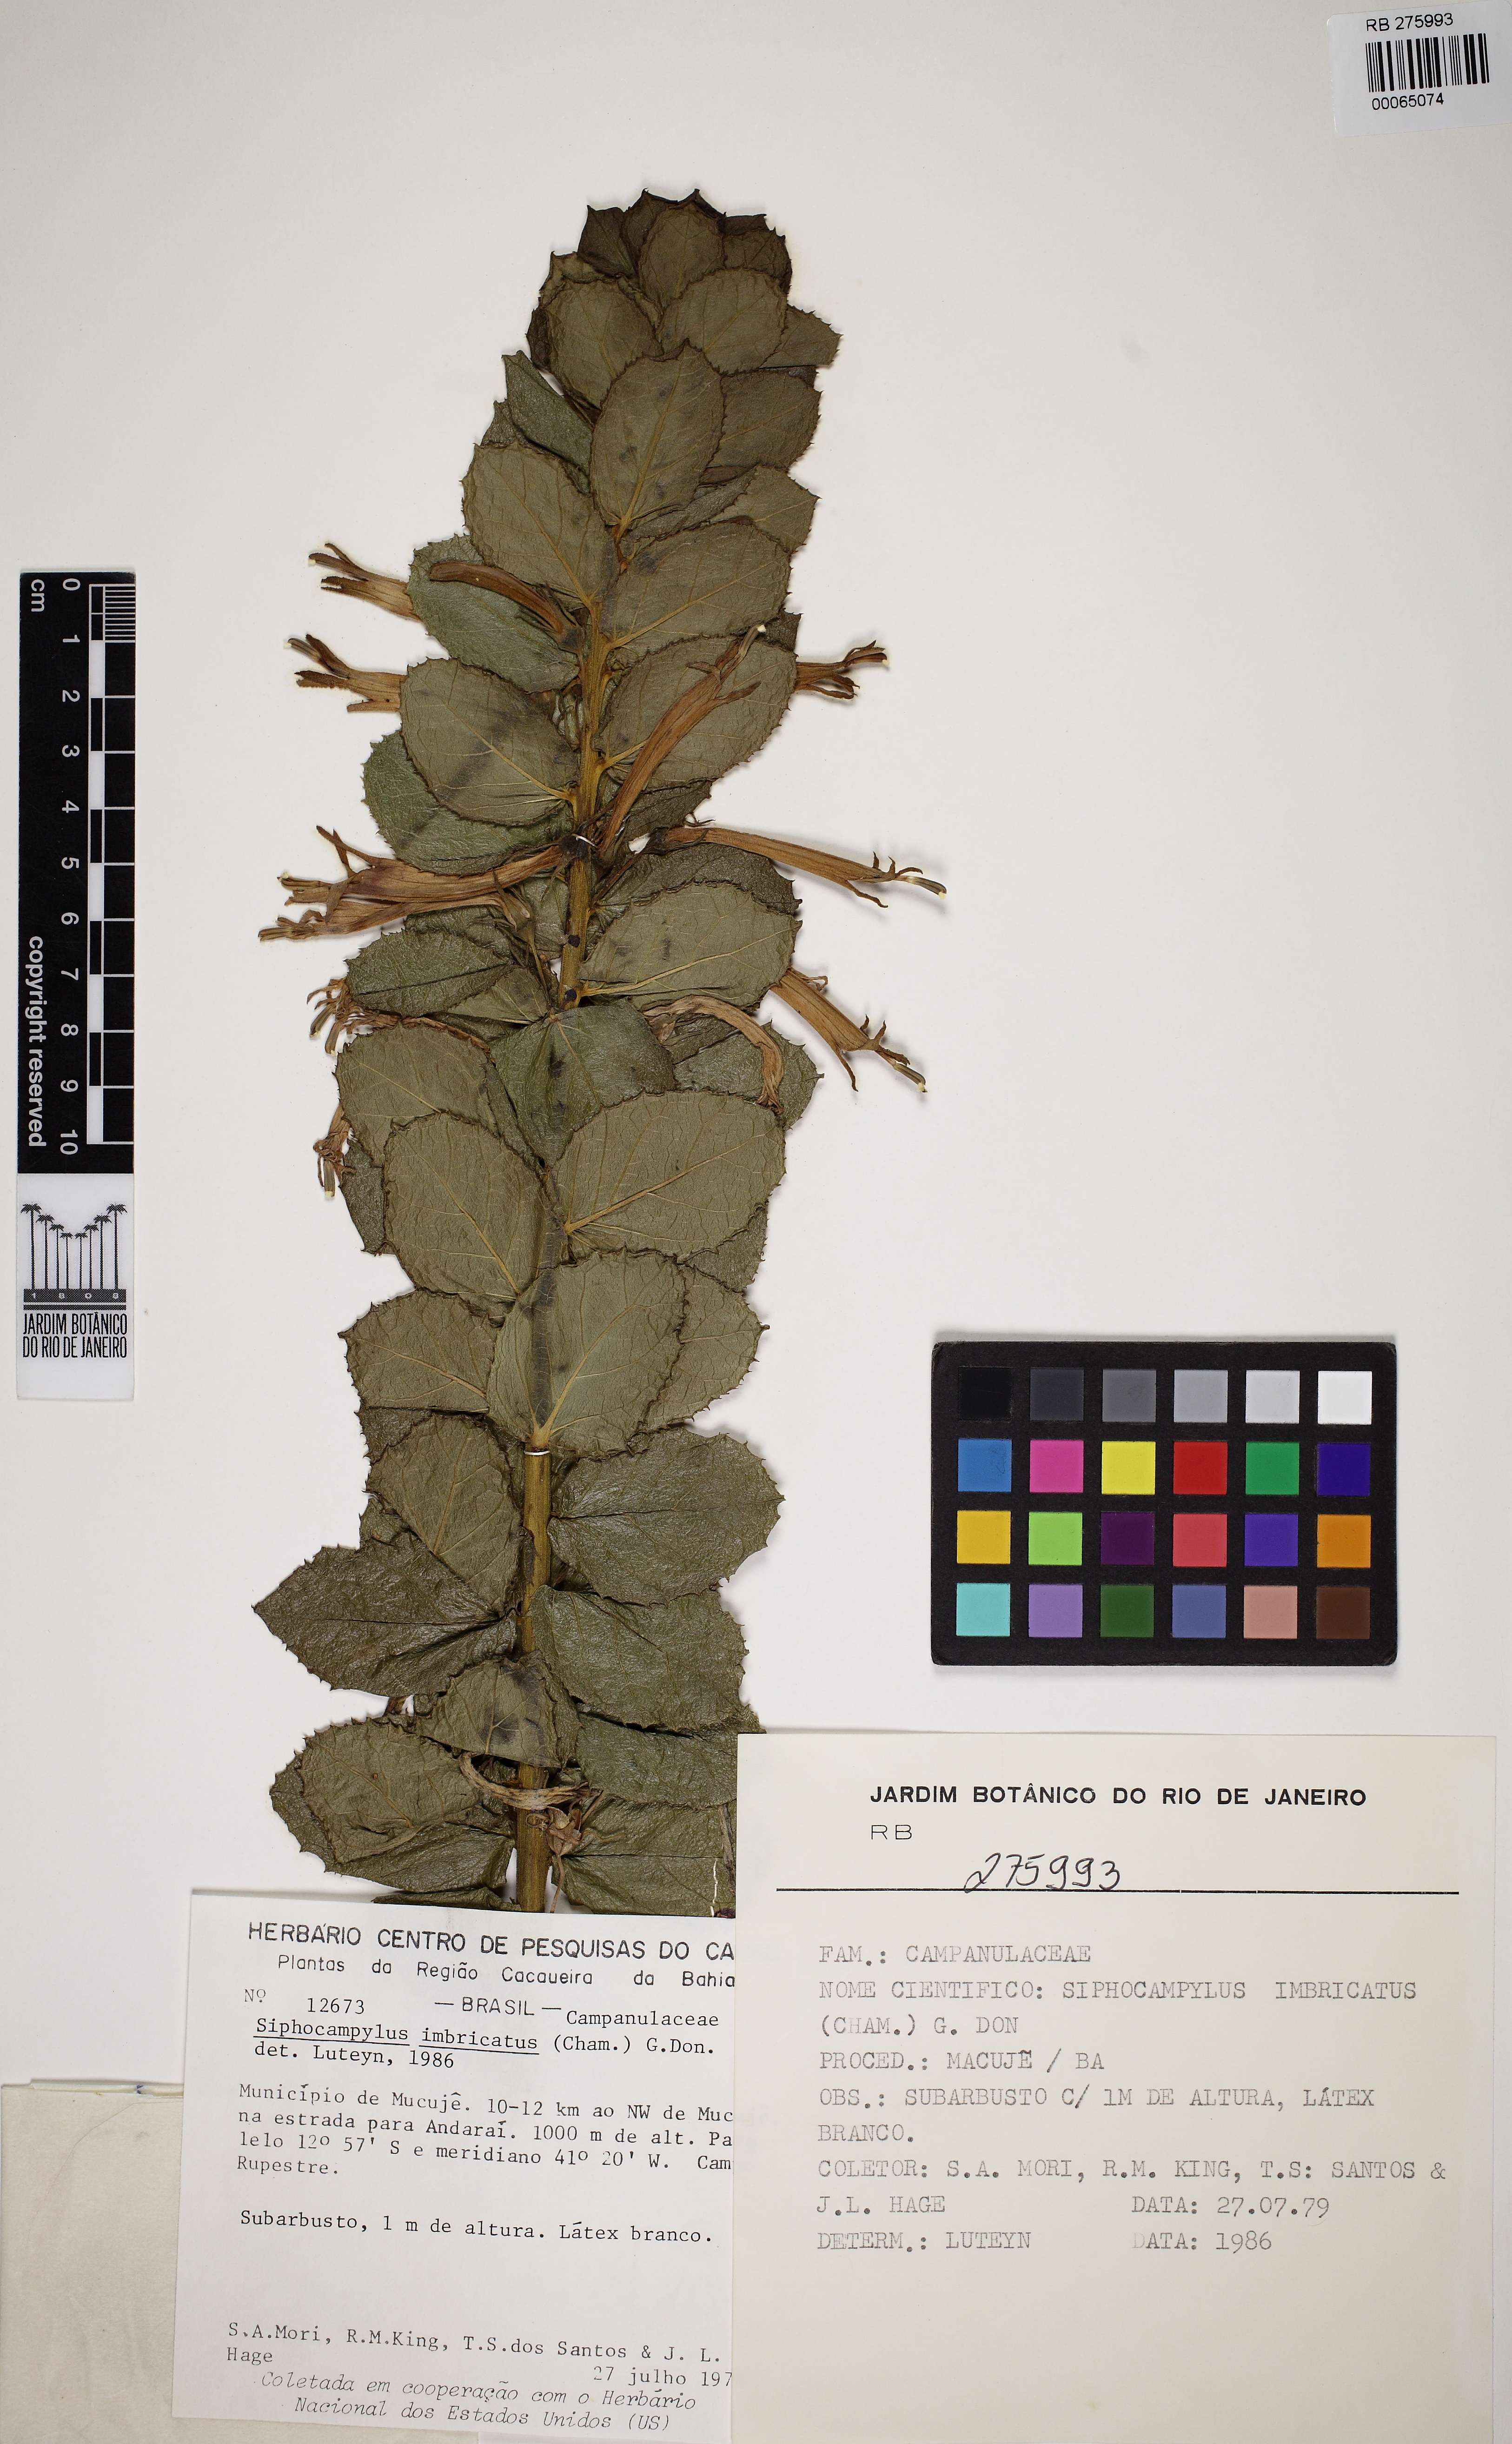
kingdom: Plantae
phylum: Tracheophyta
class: Magnoliopsida
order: Asterales
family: Campanulaceae
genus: Siphocampylus
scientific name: Siphocampylus imbricatus
